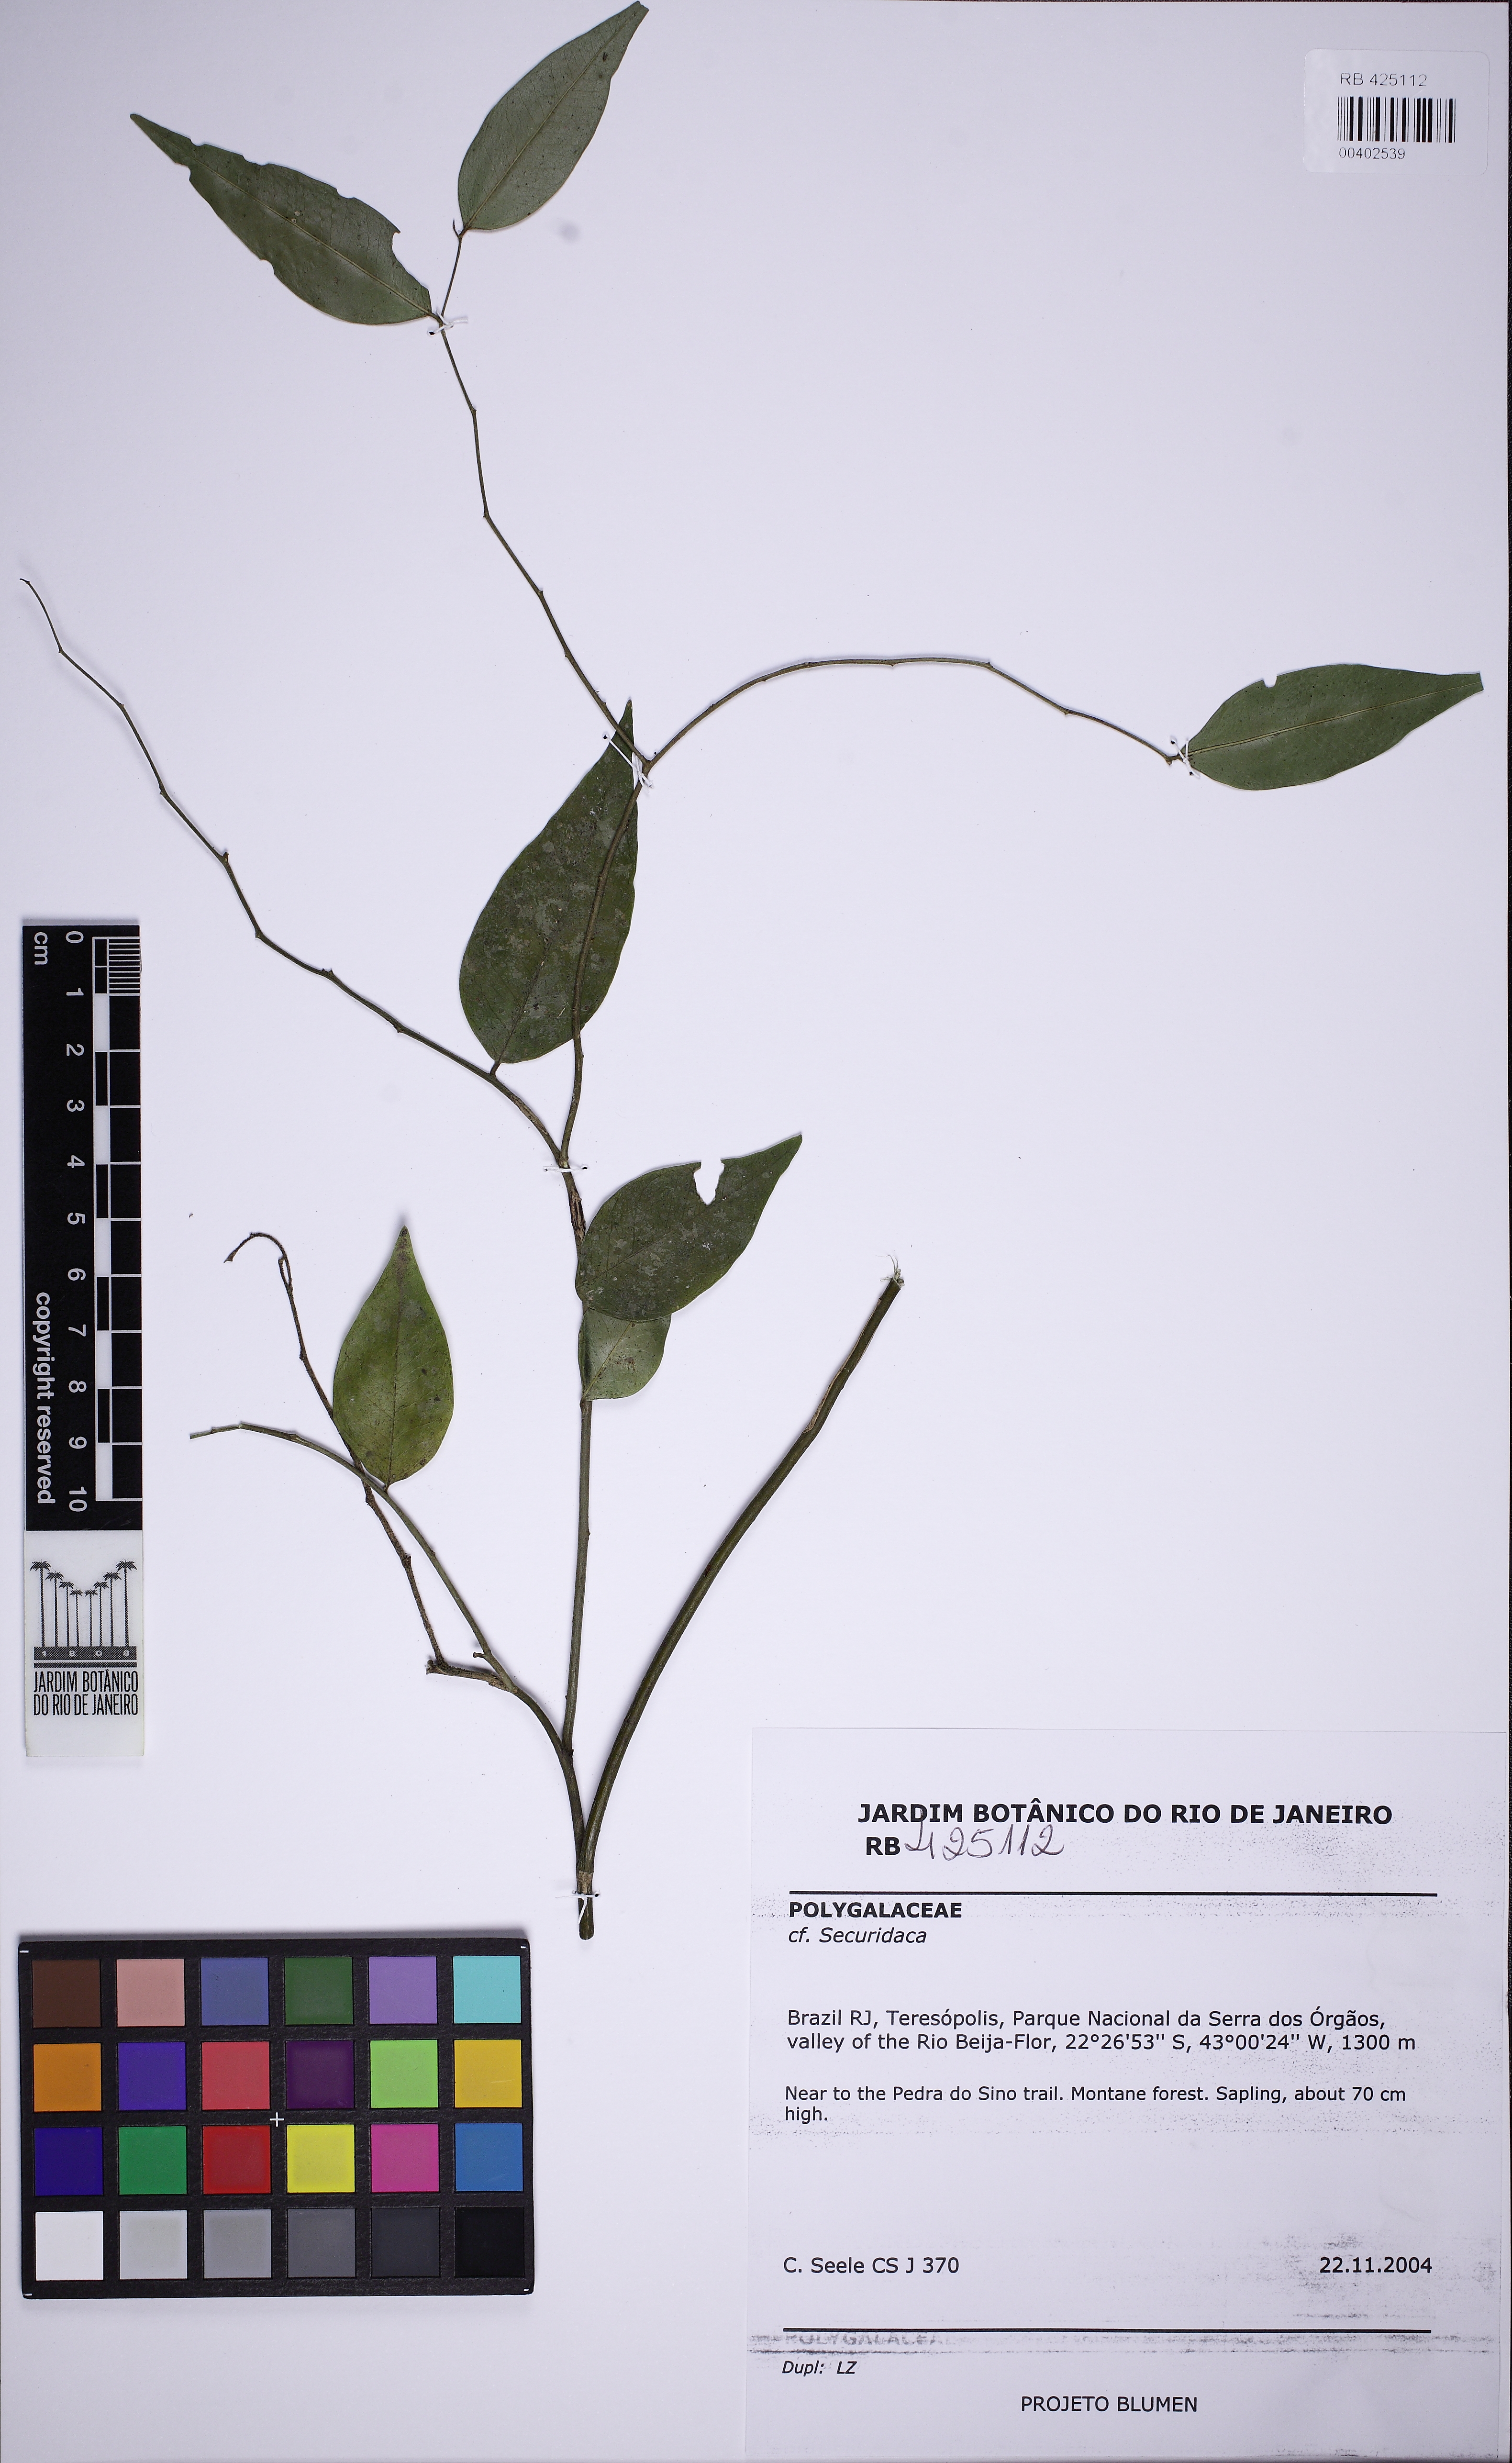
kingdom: Plantae
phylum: Tracheophyta
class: Magnoliopsida
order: Fabales
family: Polygalaceae
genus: Securidaca
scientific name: Securidaca
